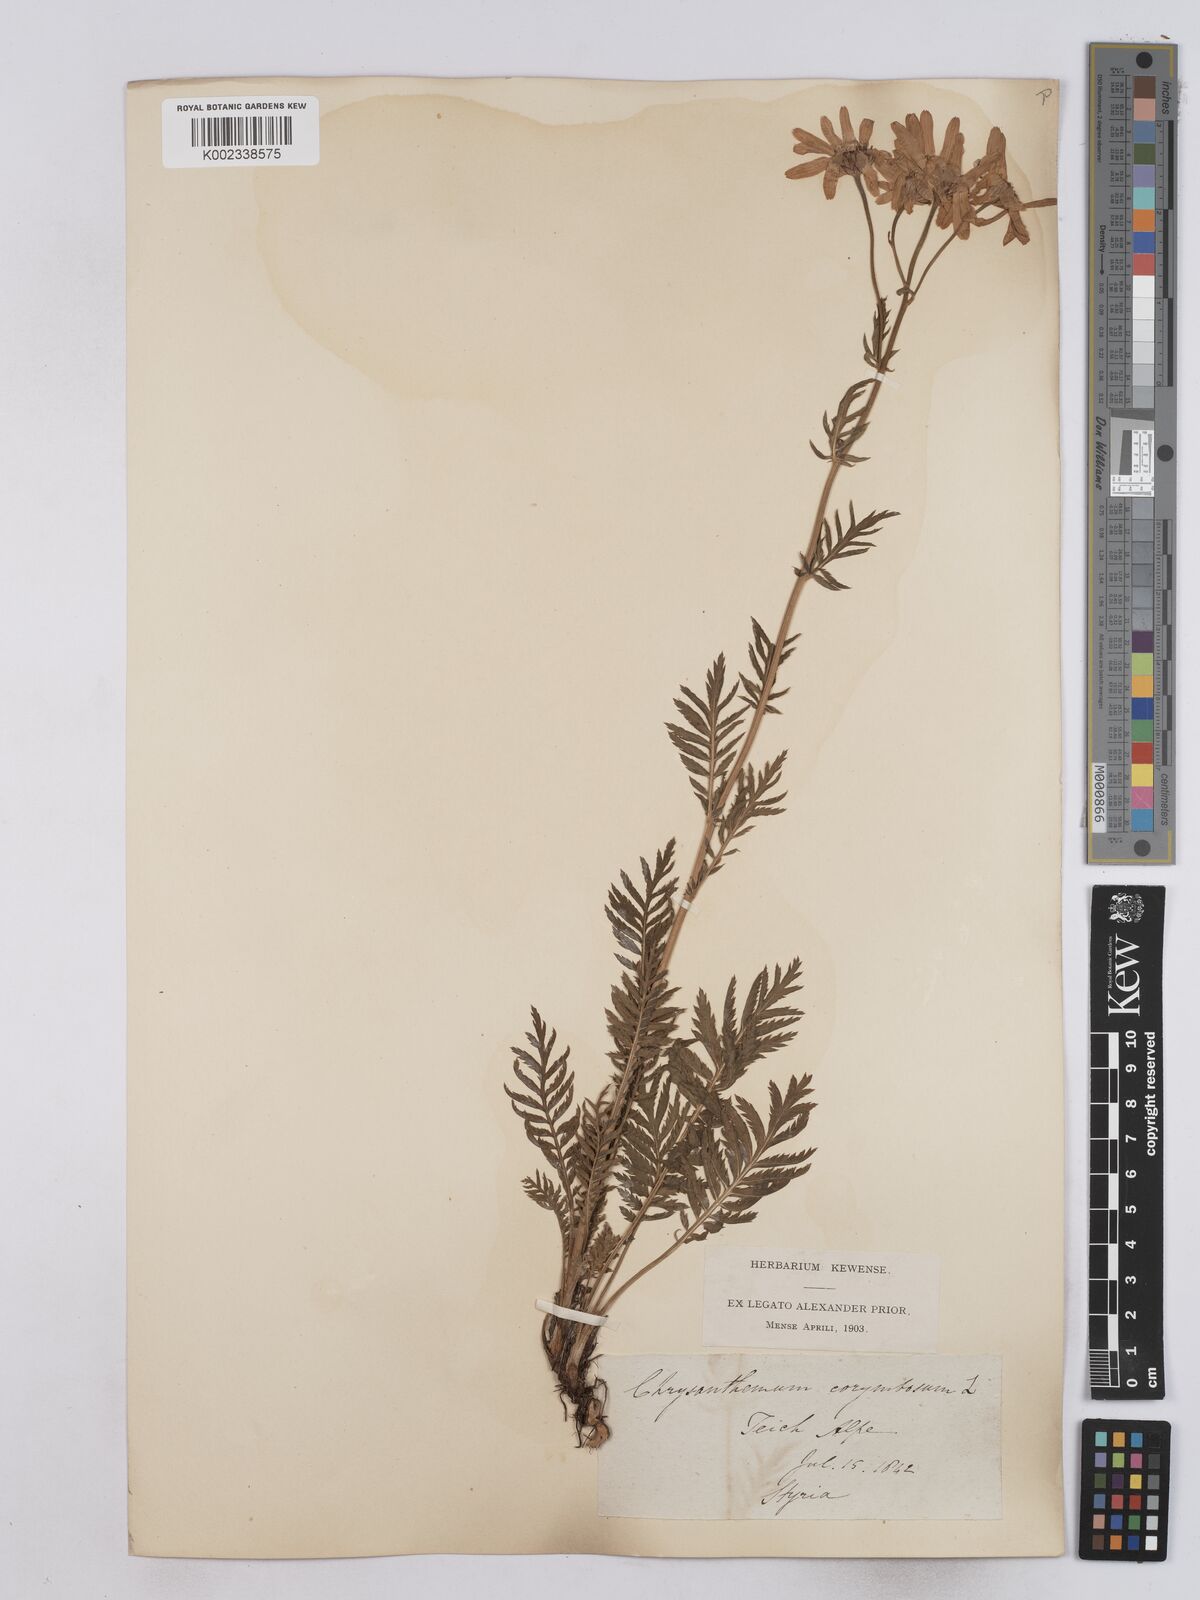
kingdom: Plantae
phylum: Tracheophyta
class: Magnoliopsida
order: Asterales
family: Asteraceae
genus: Tanacetum
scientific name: Tanacetum corymbosum
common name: Scentless feverfew
